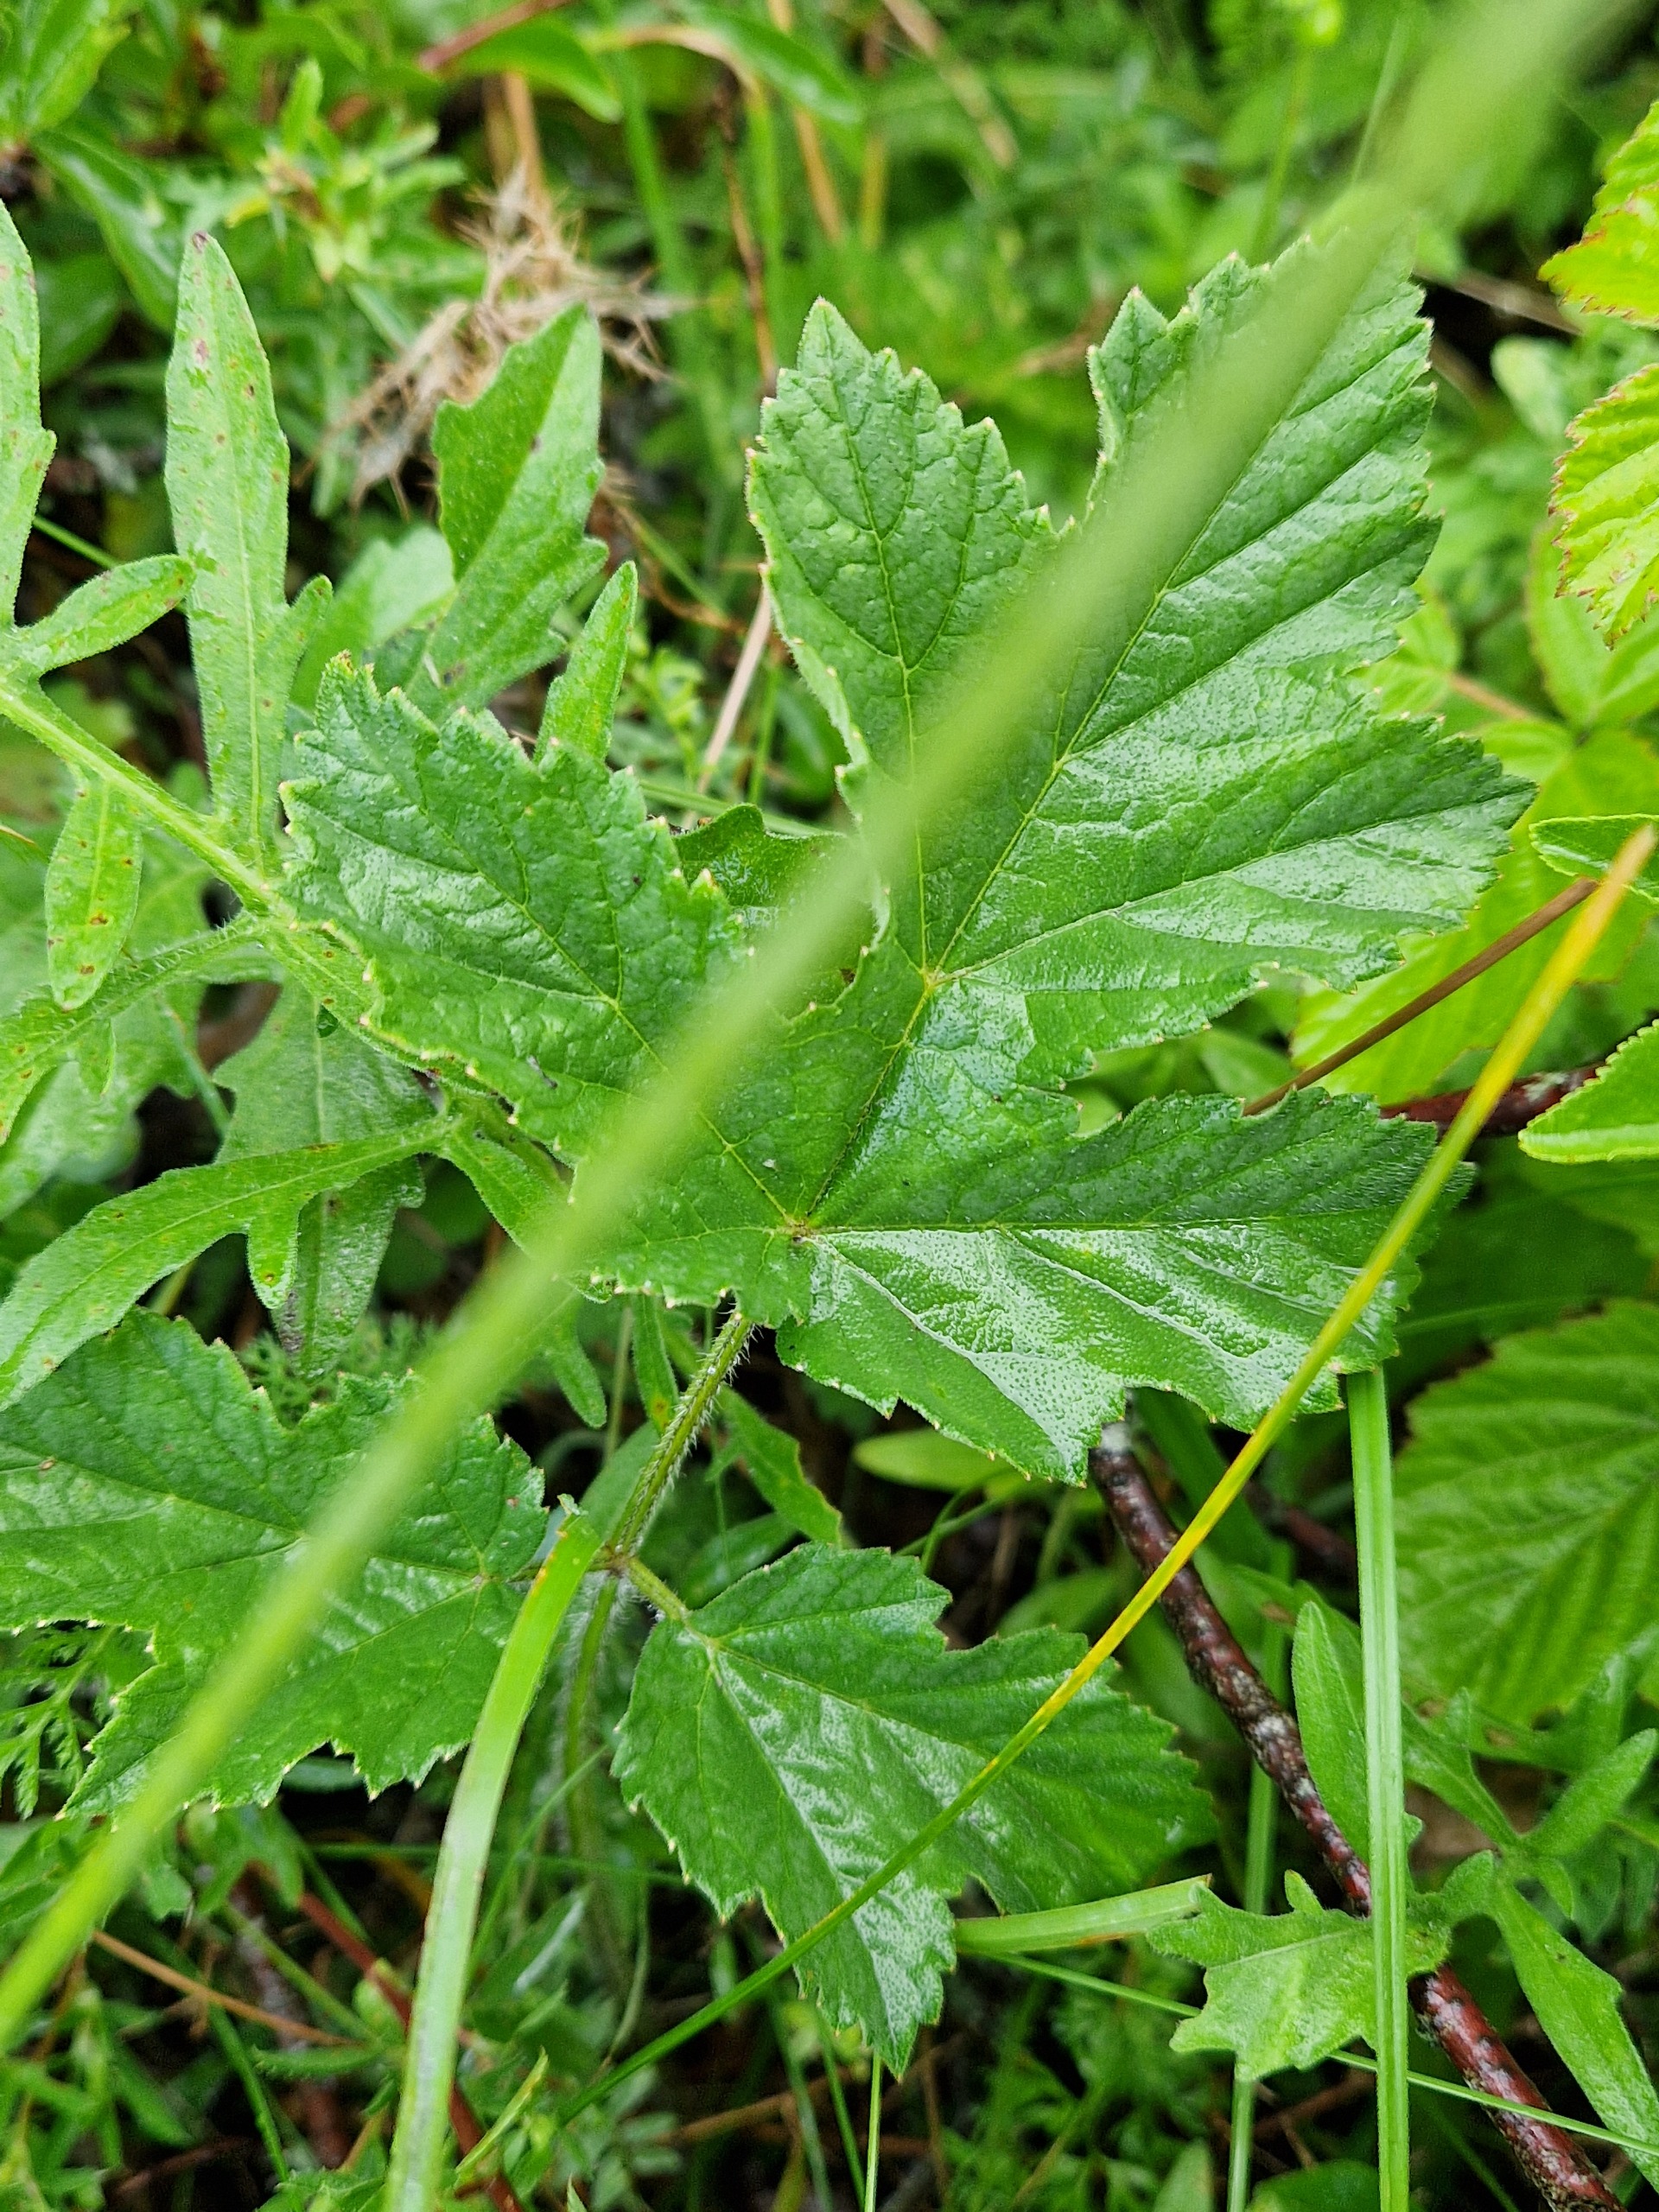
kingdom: Plantae
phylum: Tracheophyta
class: Magnoliopsida
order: Apiales
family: Apiaceae
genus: Heracleum
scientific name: Heracleum sphondylium
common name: Almindelig bjørneklo
